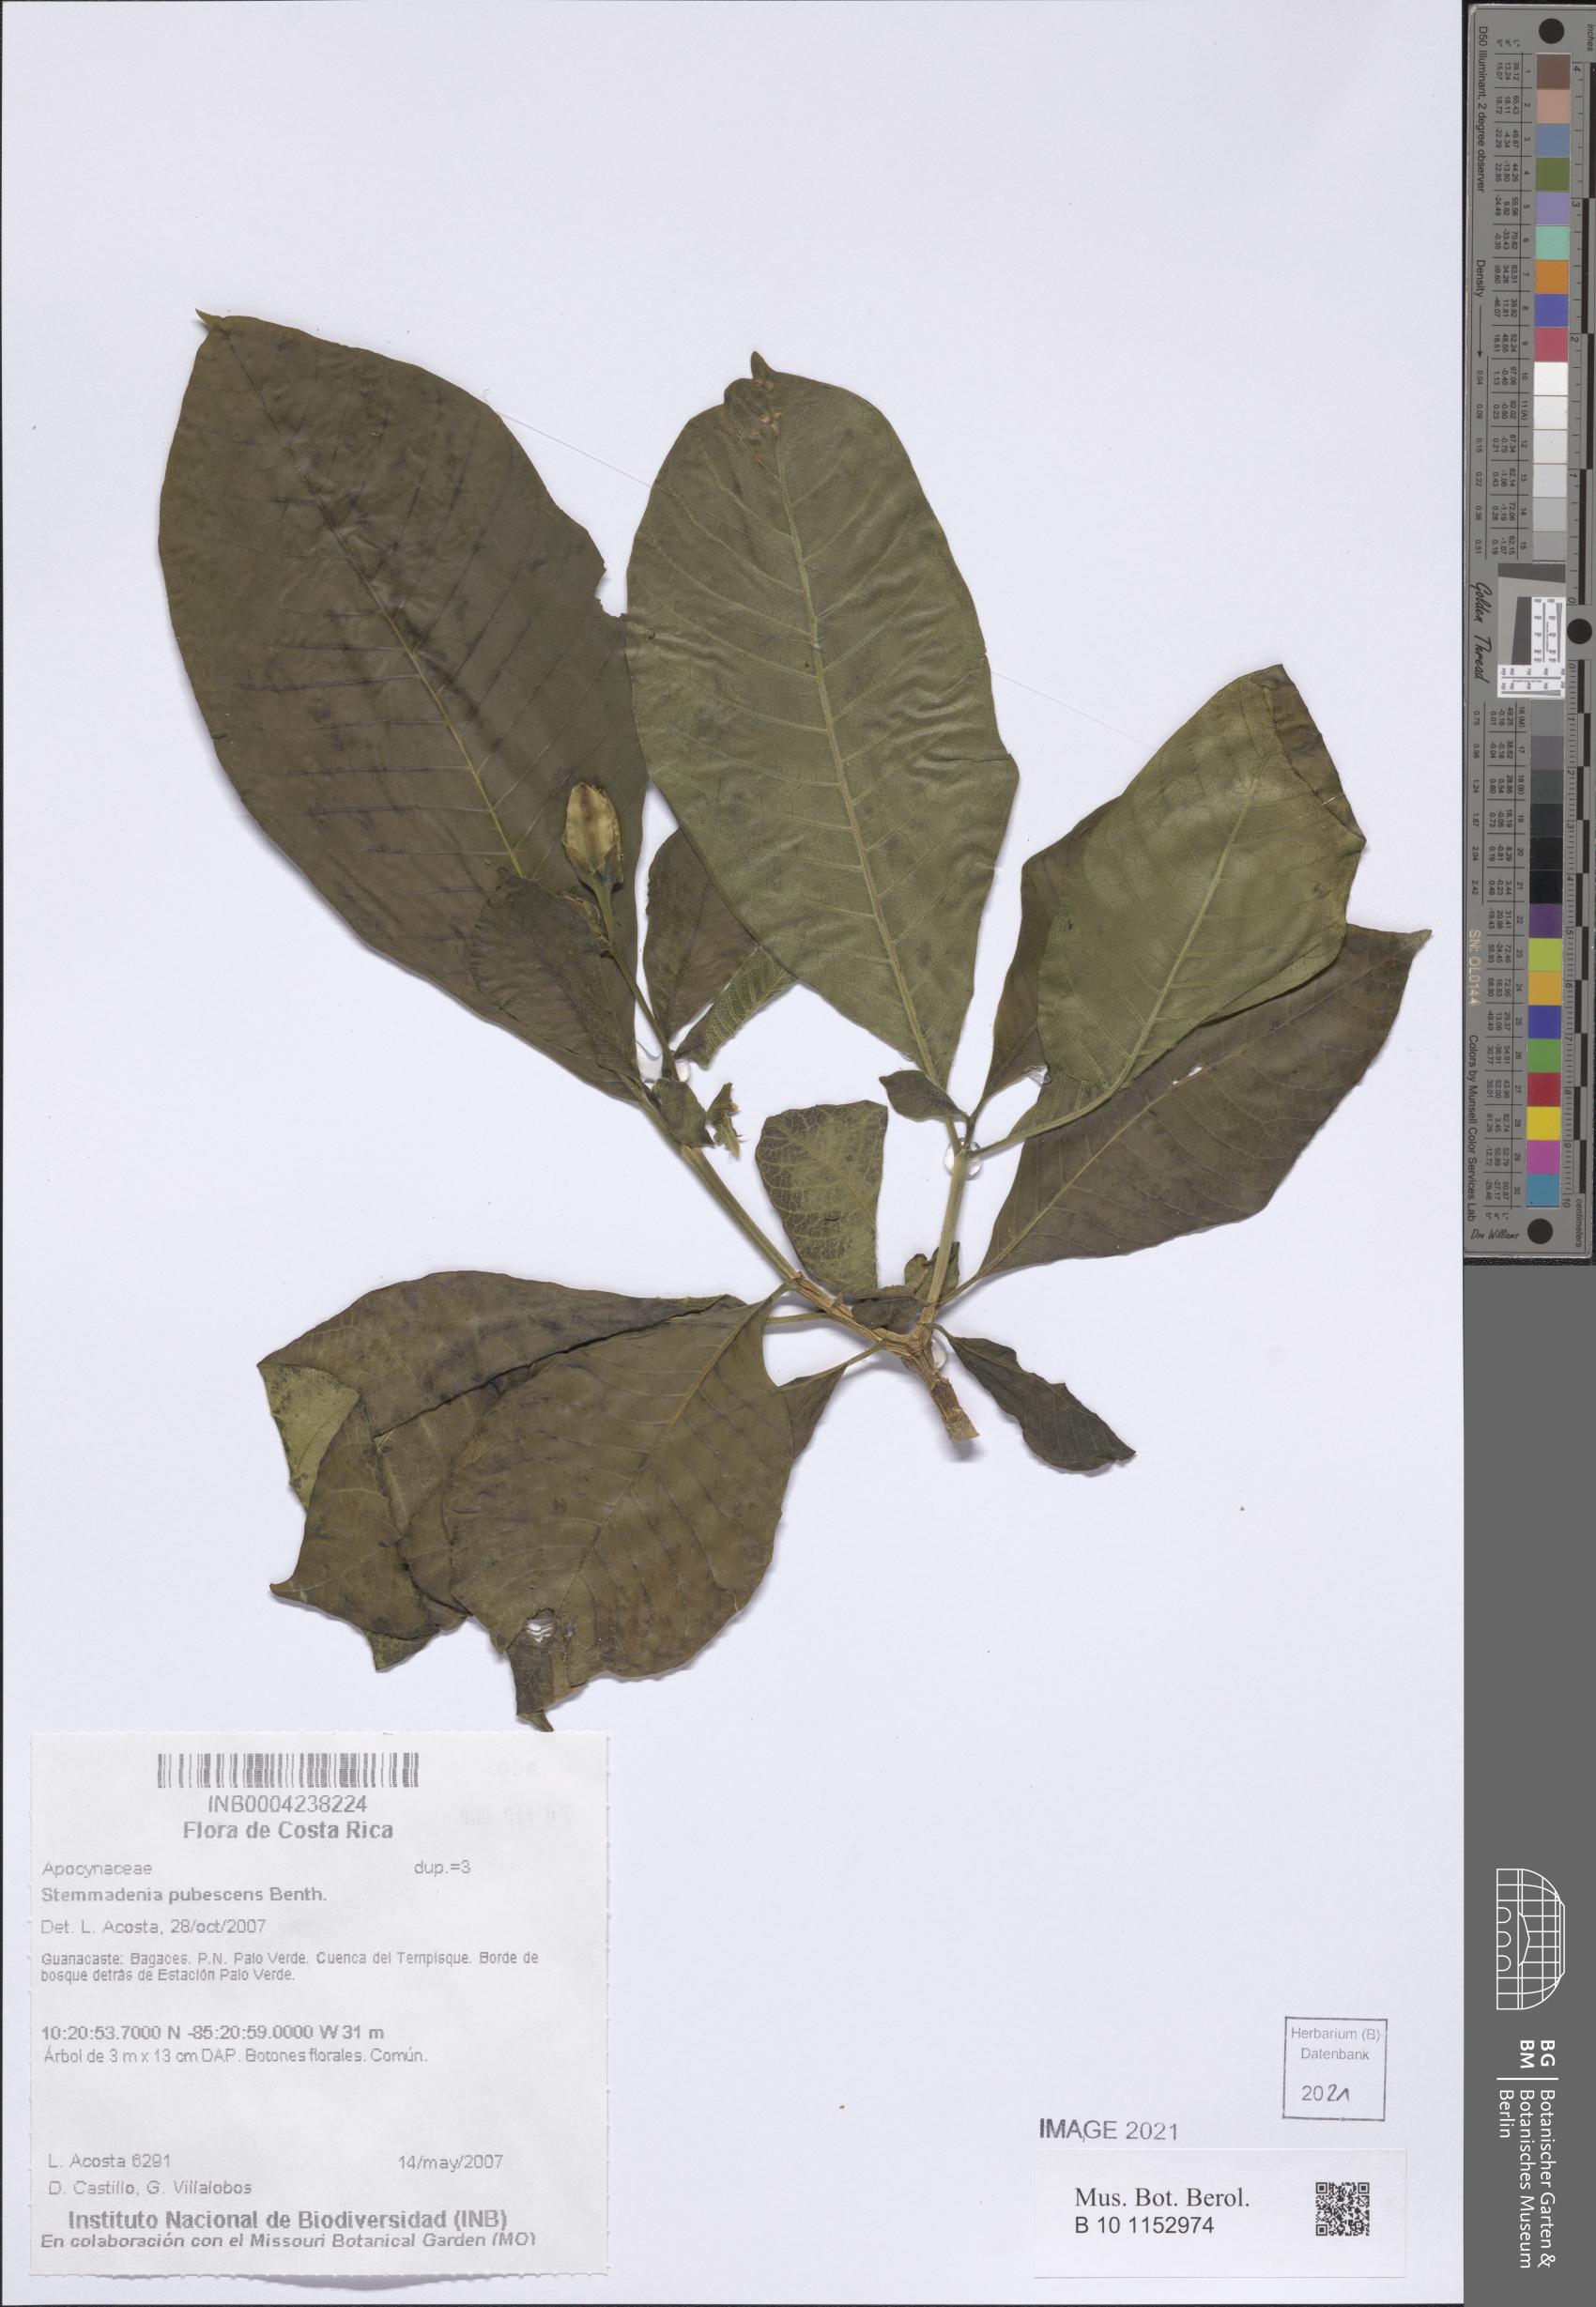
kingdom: Plantae
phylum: Tracheophyta
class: Magnoliopsida
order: Gentianales
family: Apocynaceae
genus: Tabernaemontana
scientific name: Tabernaemontana glabra
